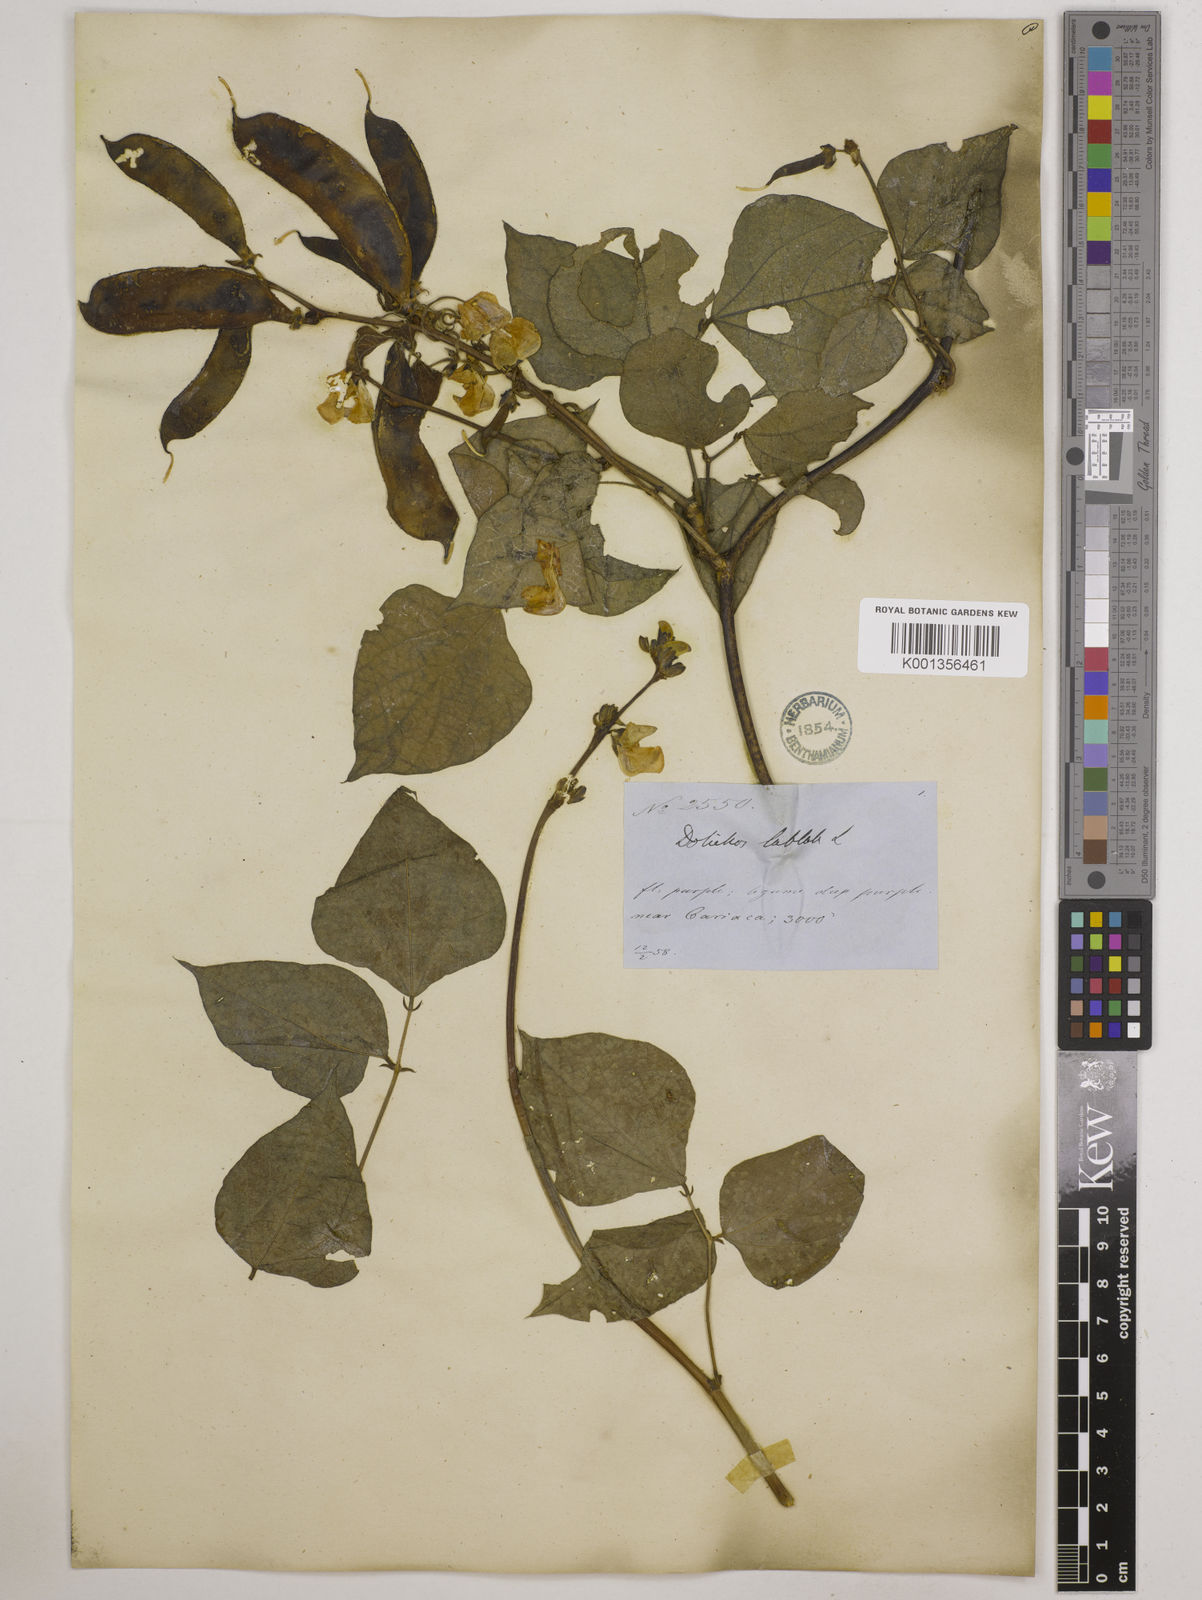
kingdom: Plantae
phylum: Tracheophyta
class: Magnoliopsida
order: Fabales
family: Fabaceae
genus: Lablab
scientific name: Lablab purpureus
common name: Lablab-bean
